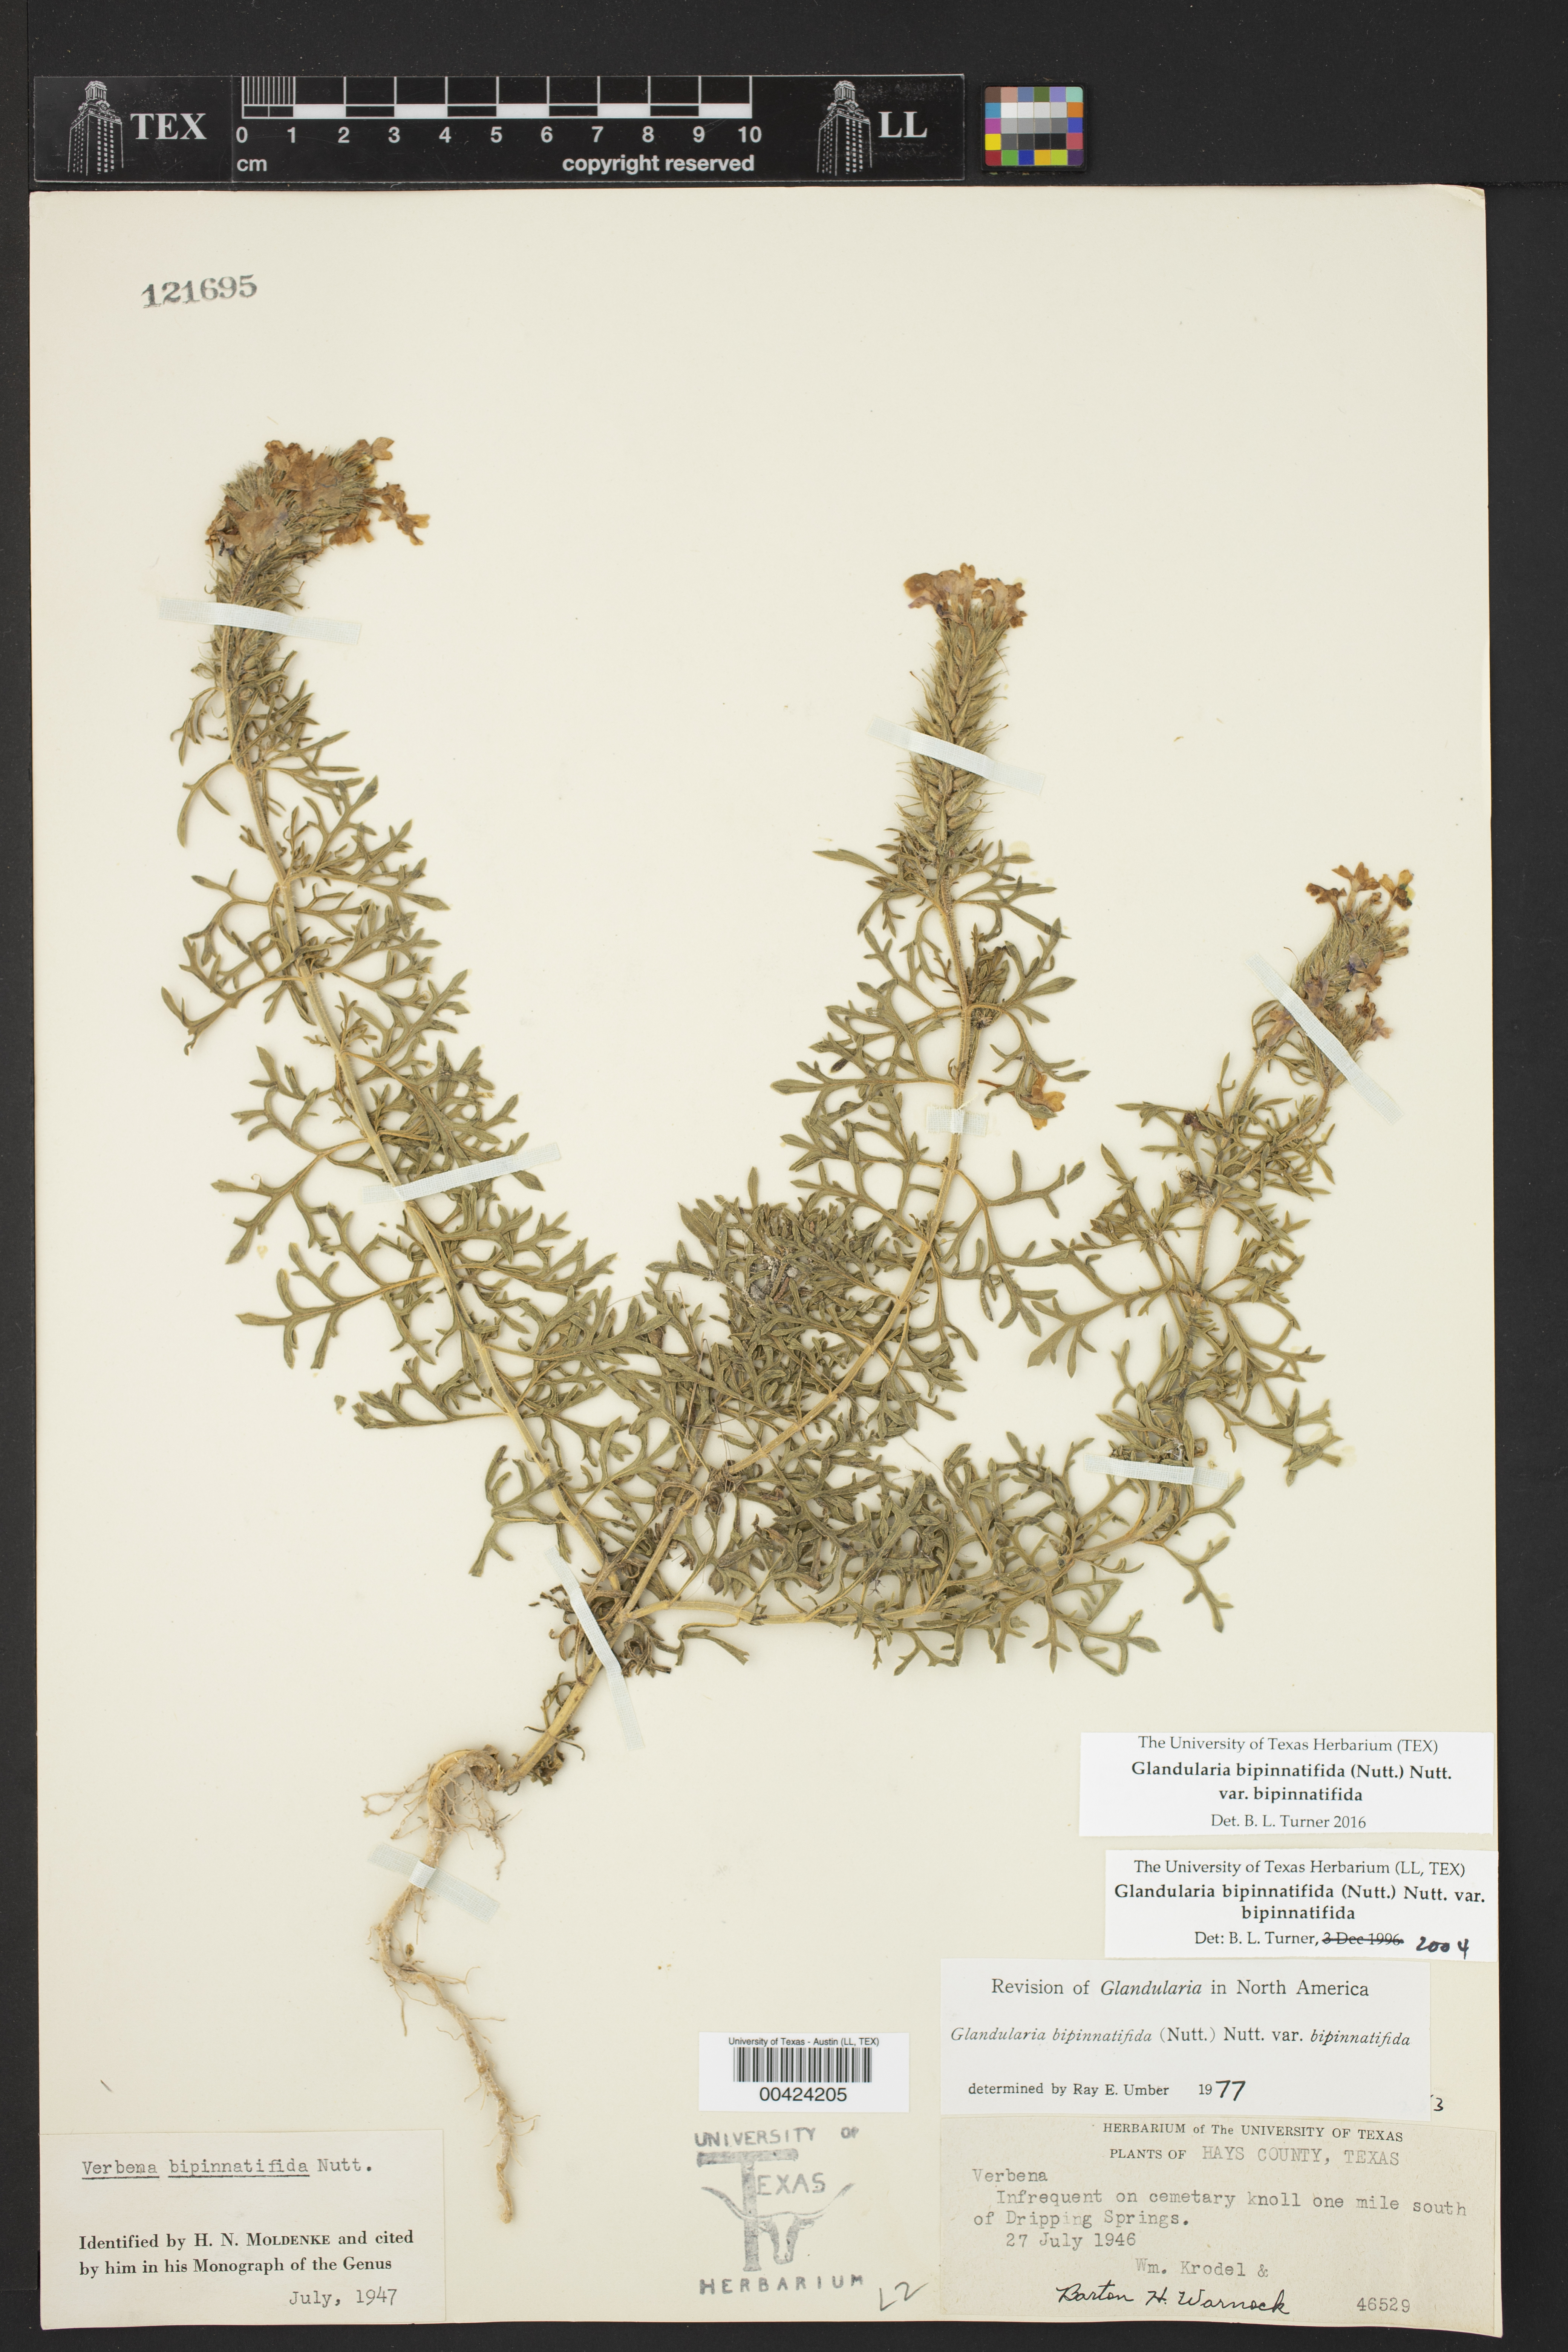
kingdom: Plantae
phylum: Tracheophyta
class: Magnoliopsida
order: Lamiales
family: Verbenaceae
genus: Verbena
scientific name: Verbena bipinnatifida
